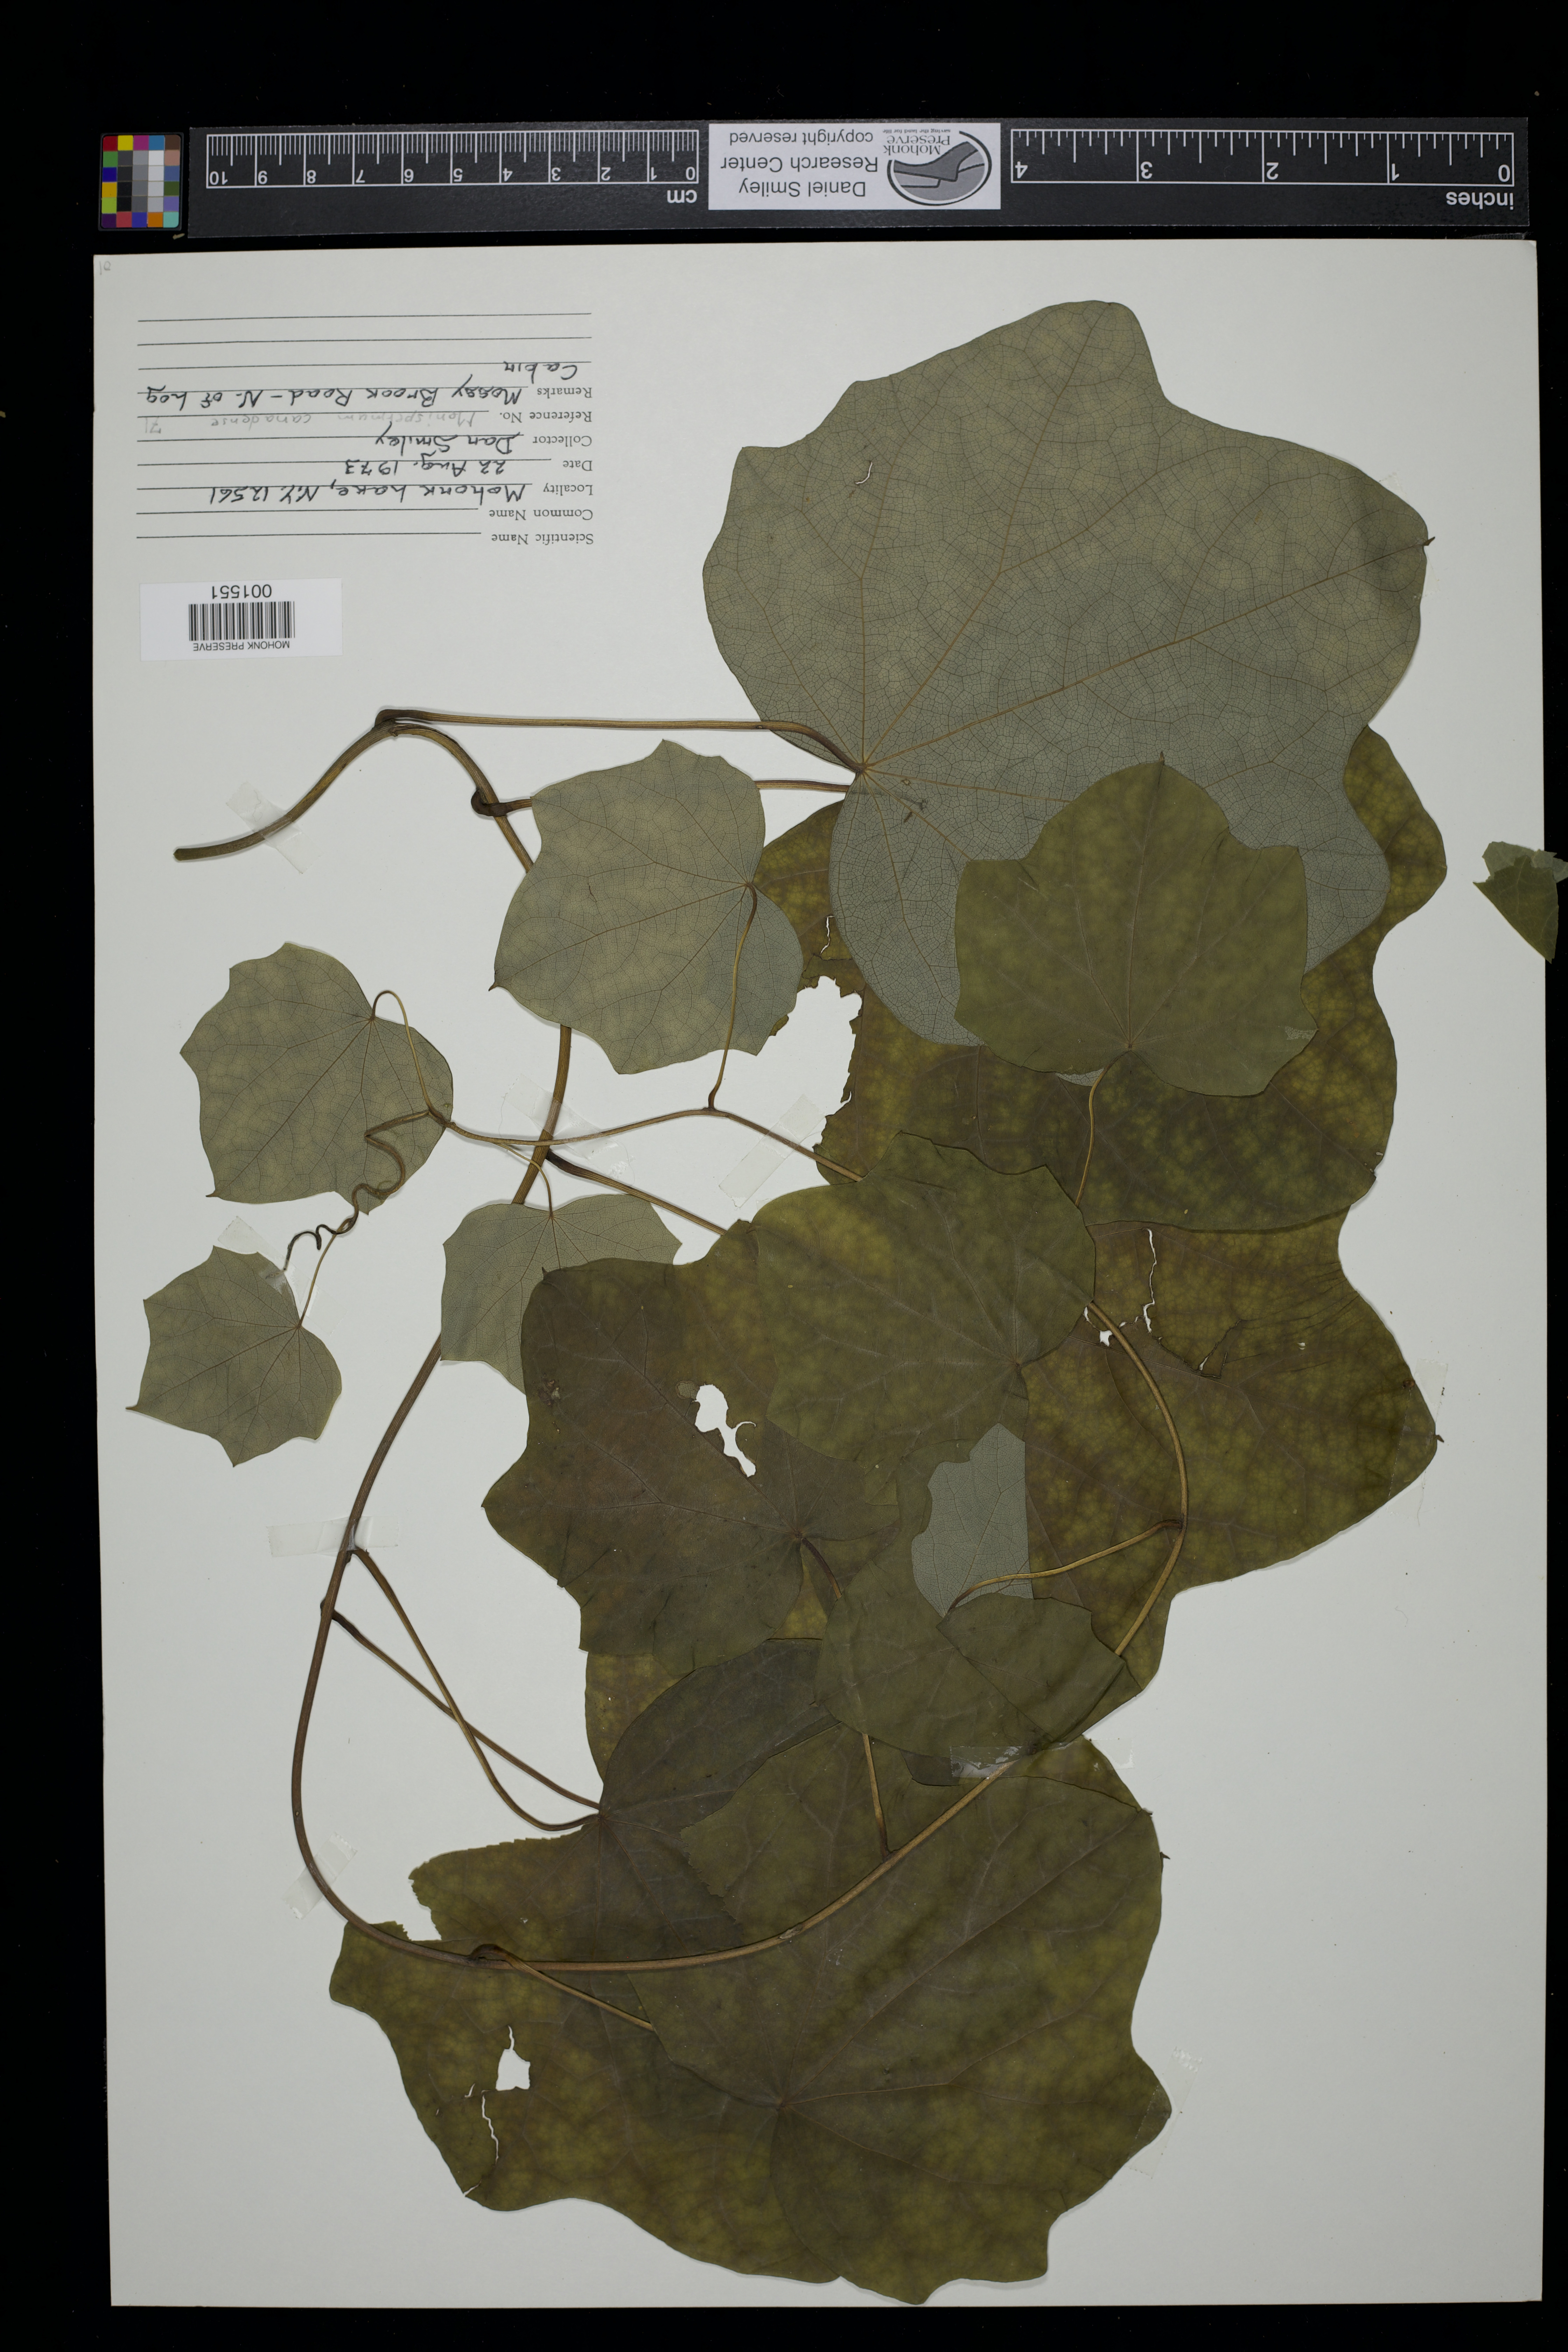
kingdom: Plantae
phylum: Tracheophyta
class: Magnoliopsida
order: Ranunculales
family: Menispermaceae
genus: Menispermum
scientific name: Menispermum canadense
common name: Moonseed
